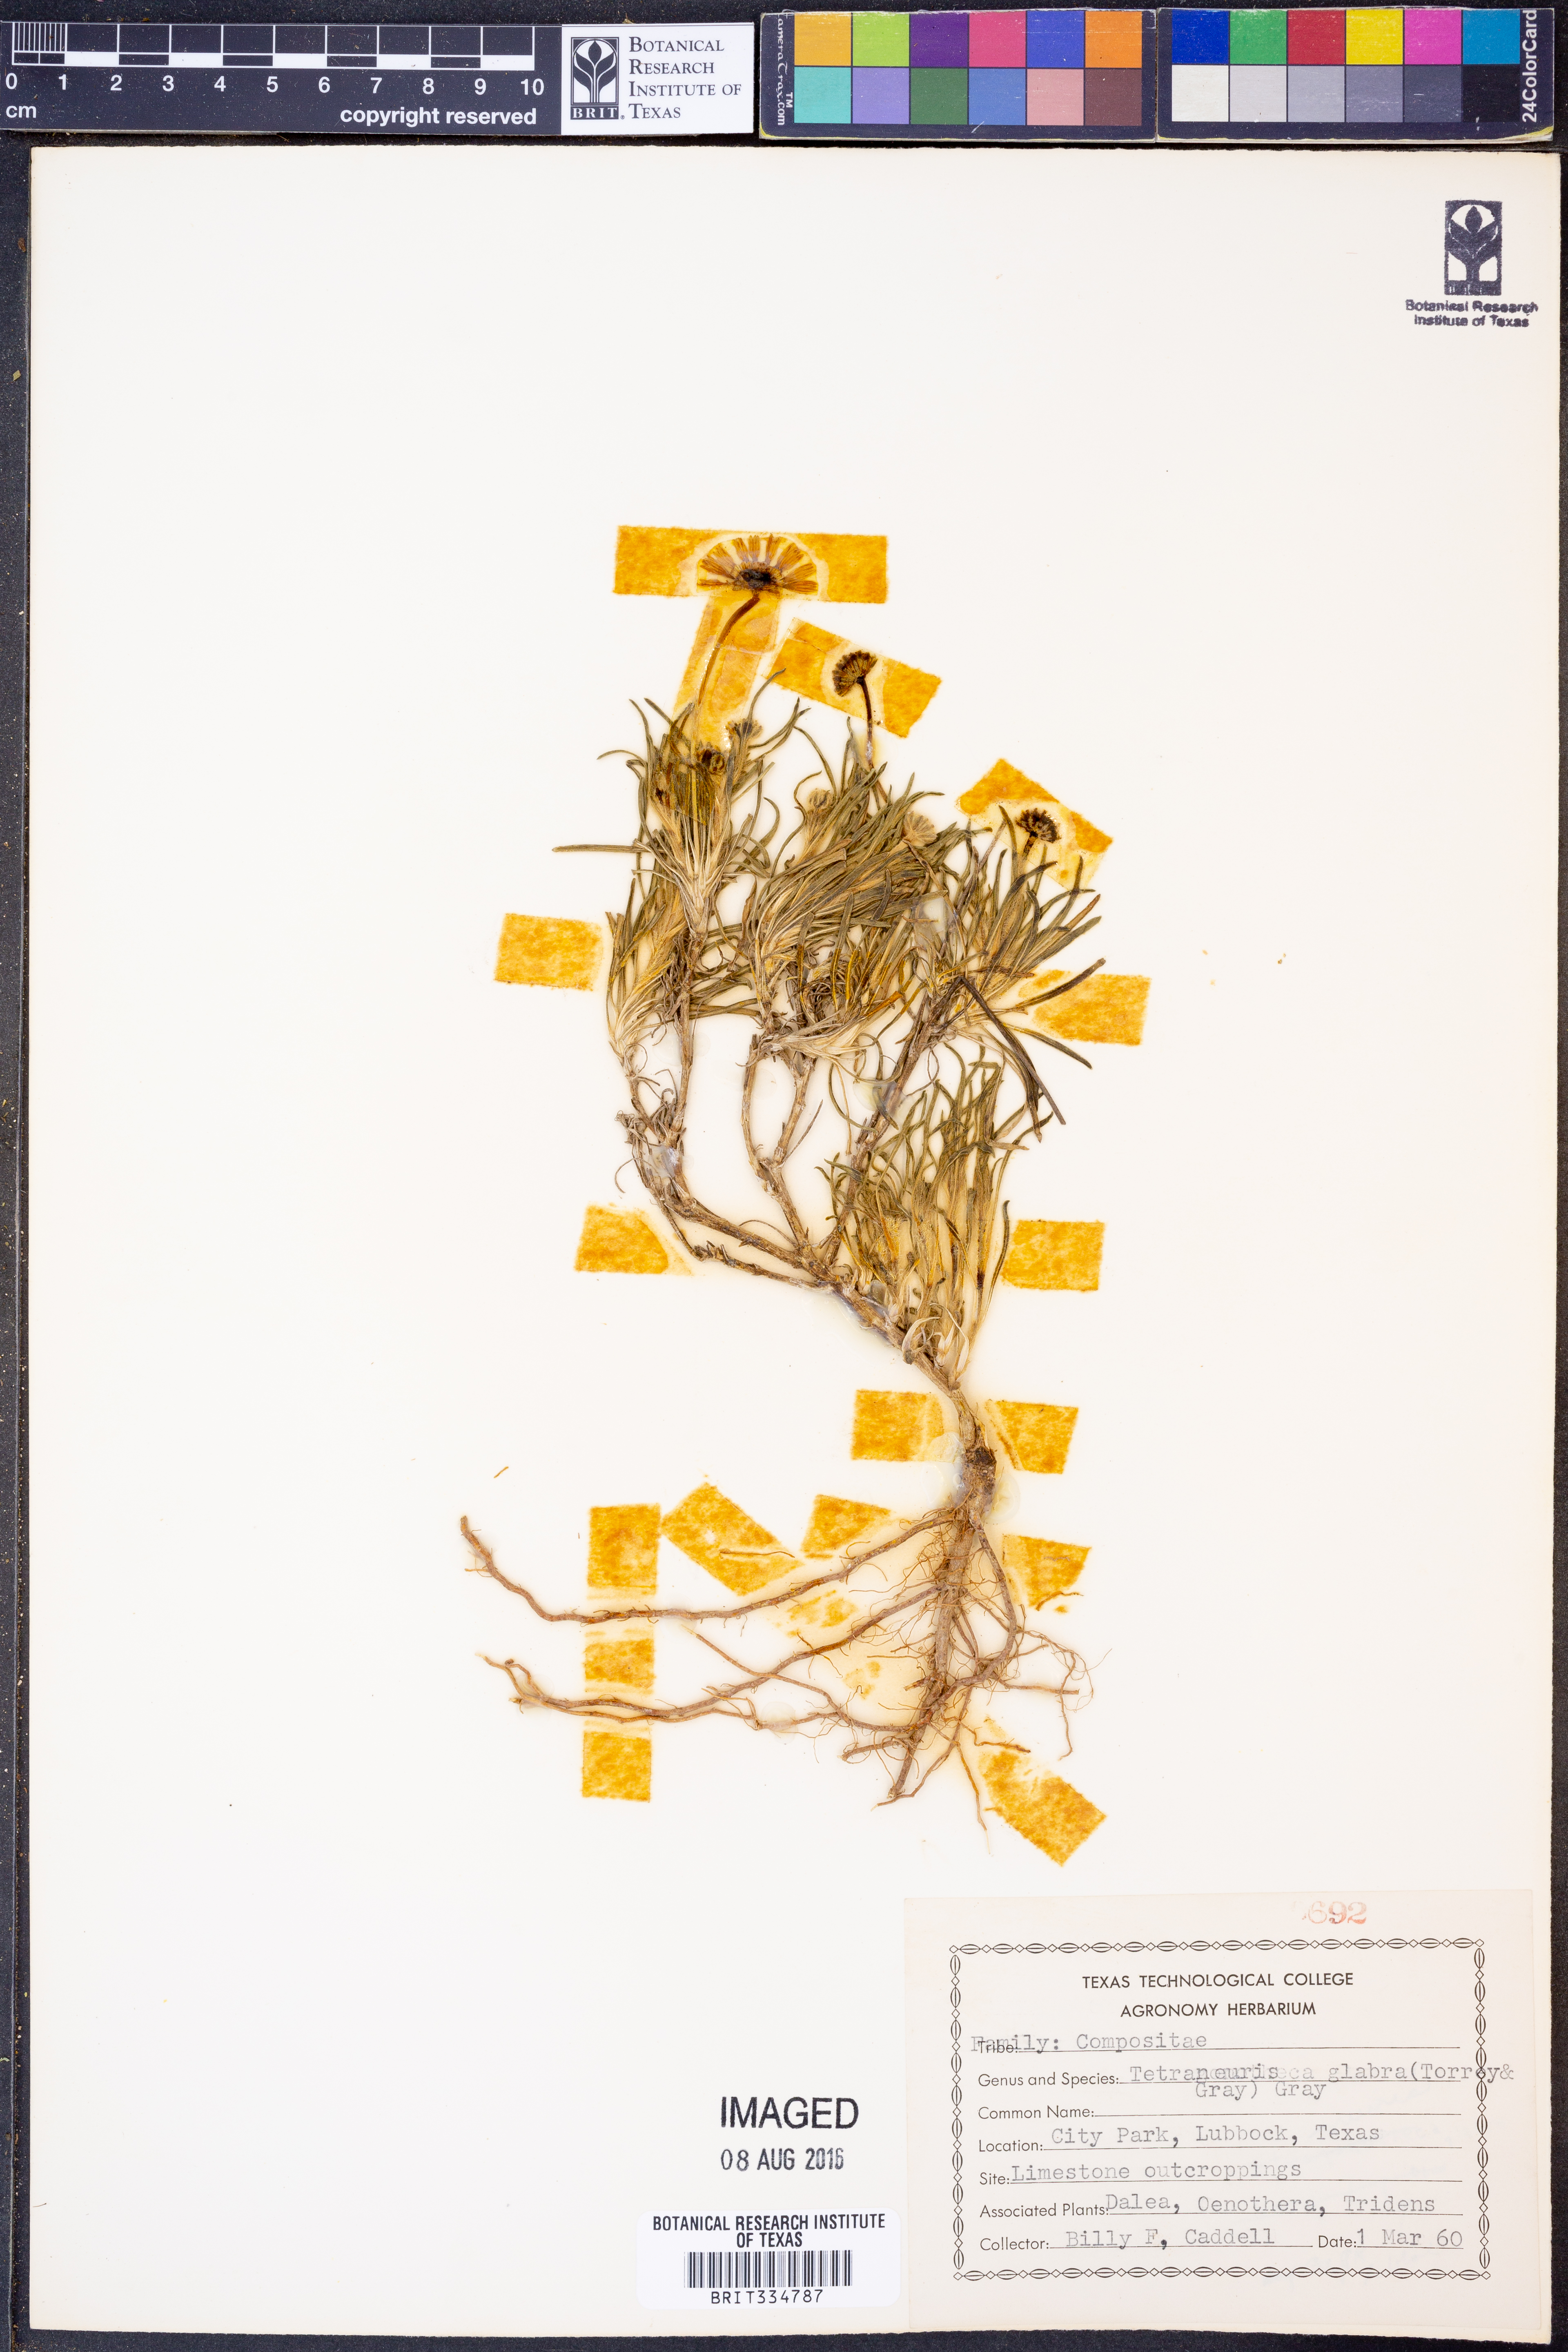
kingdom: Plantae
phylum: Tracheophyta
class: Magnoliopsida
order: Asterales
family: Asteraceae
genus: Tetraneuris
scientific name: Tetraneuris scaposa
